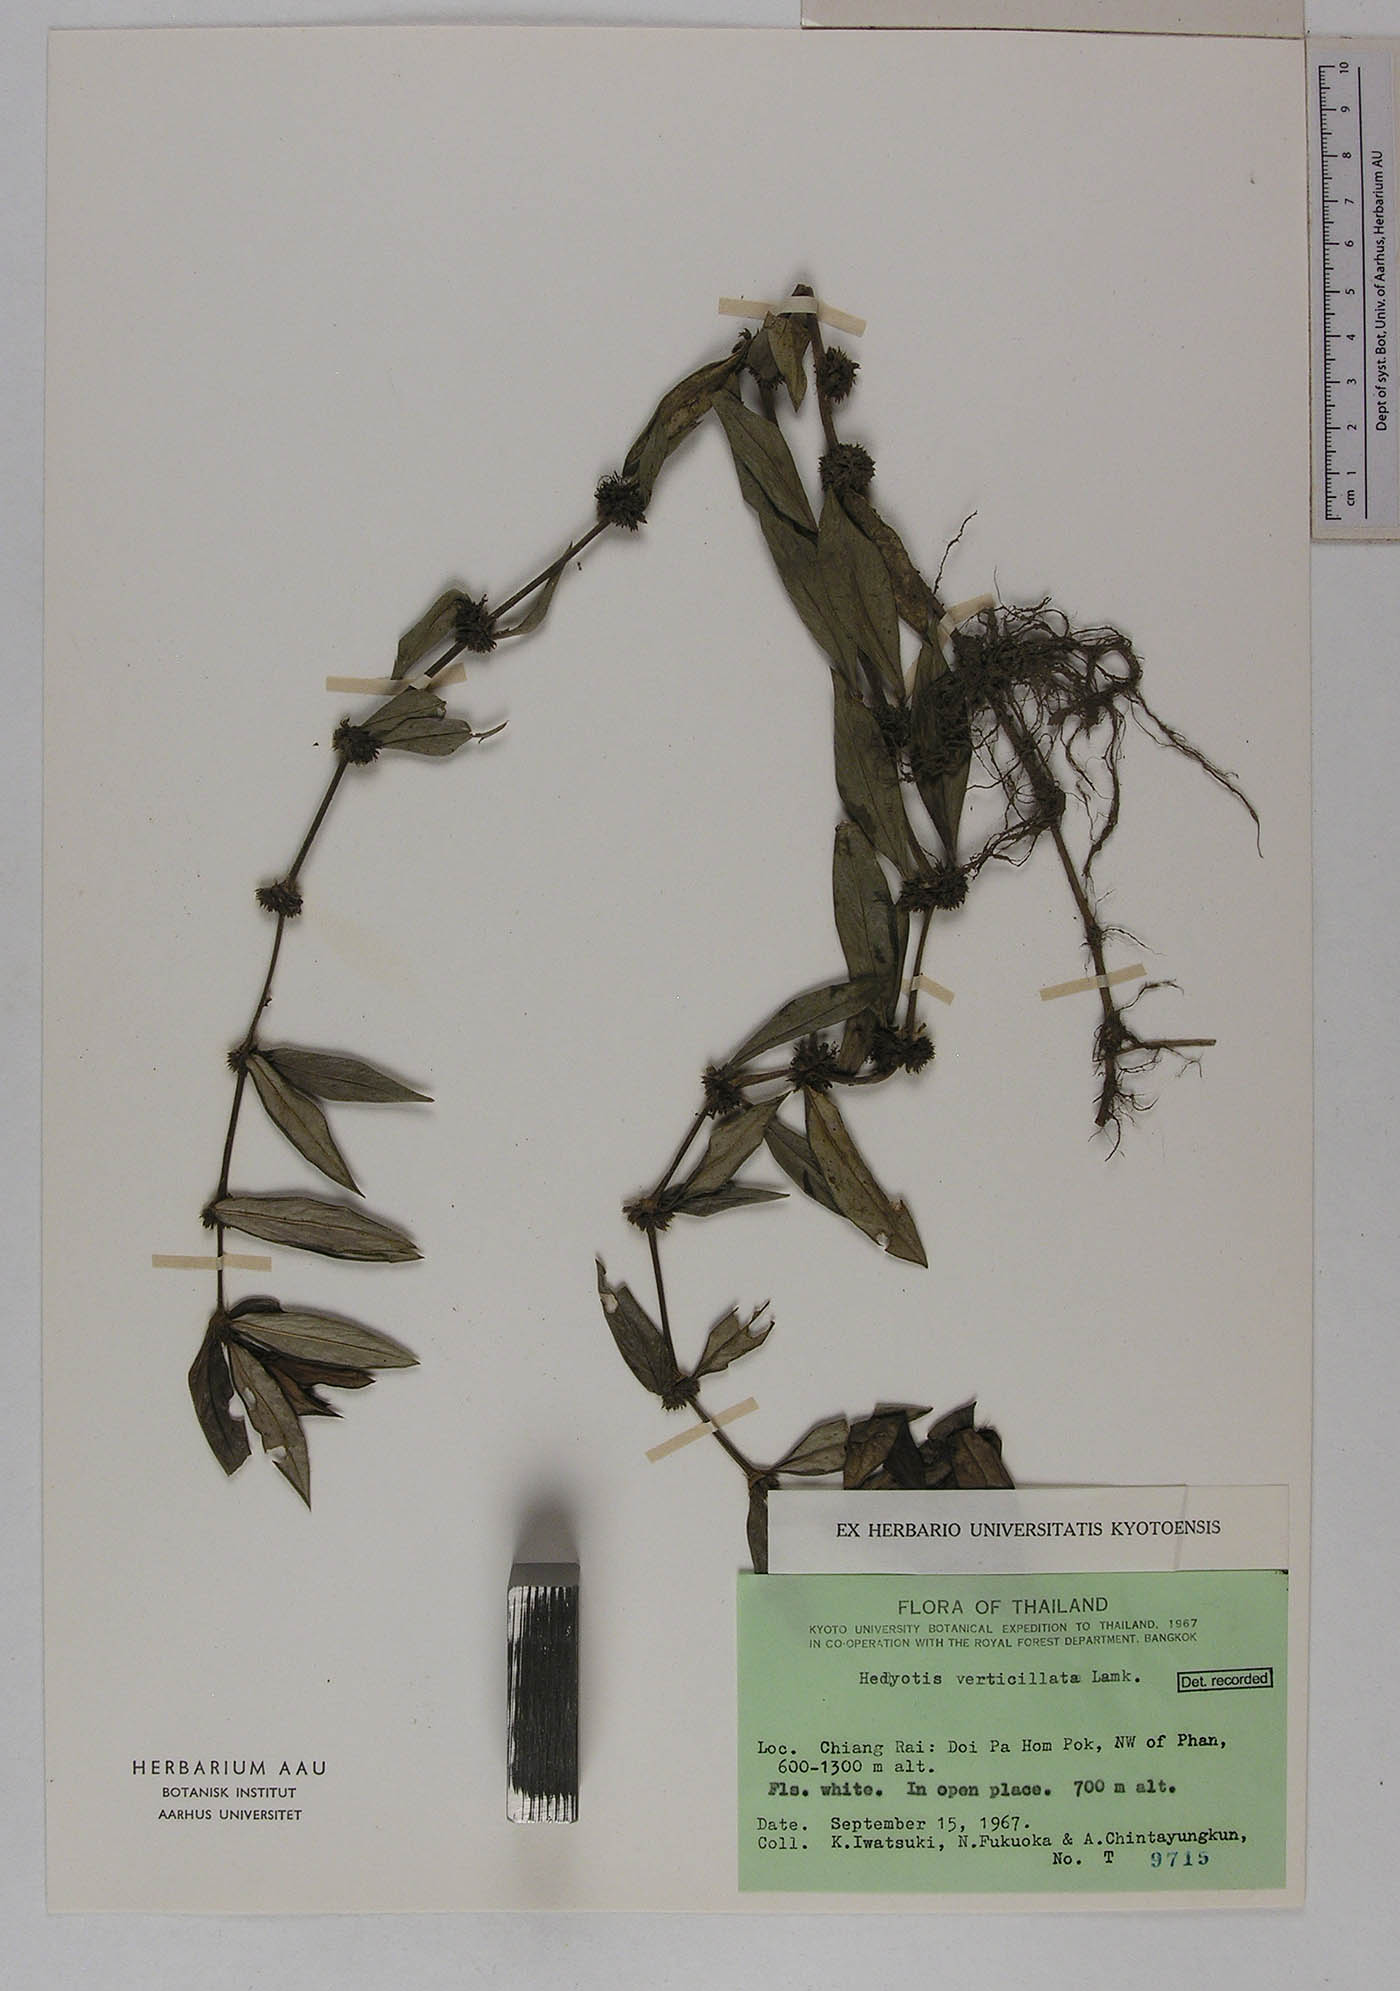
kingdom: Plantae
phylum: Tracheophyta
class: Magnoliopsida
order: Gentianales
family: Rubiaceae
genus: Scleromitrion
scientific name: Scleromitrion verticillatum
